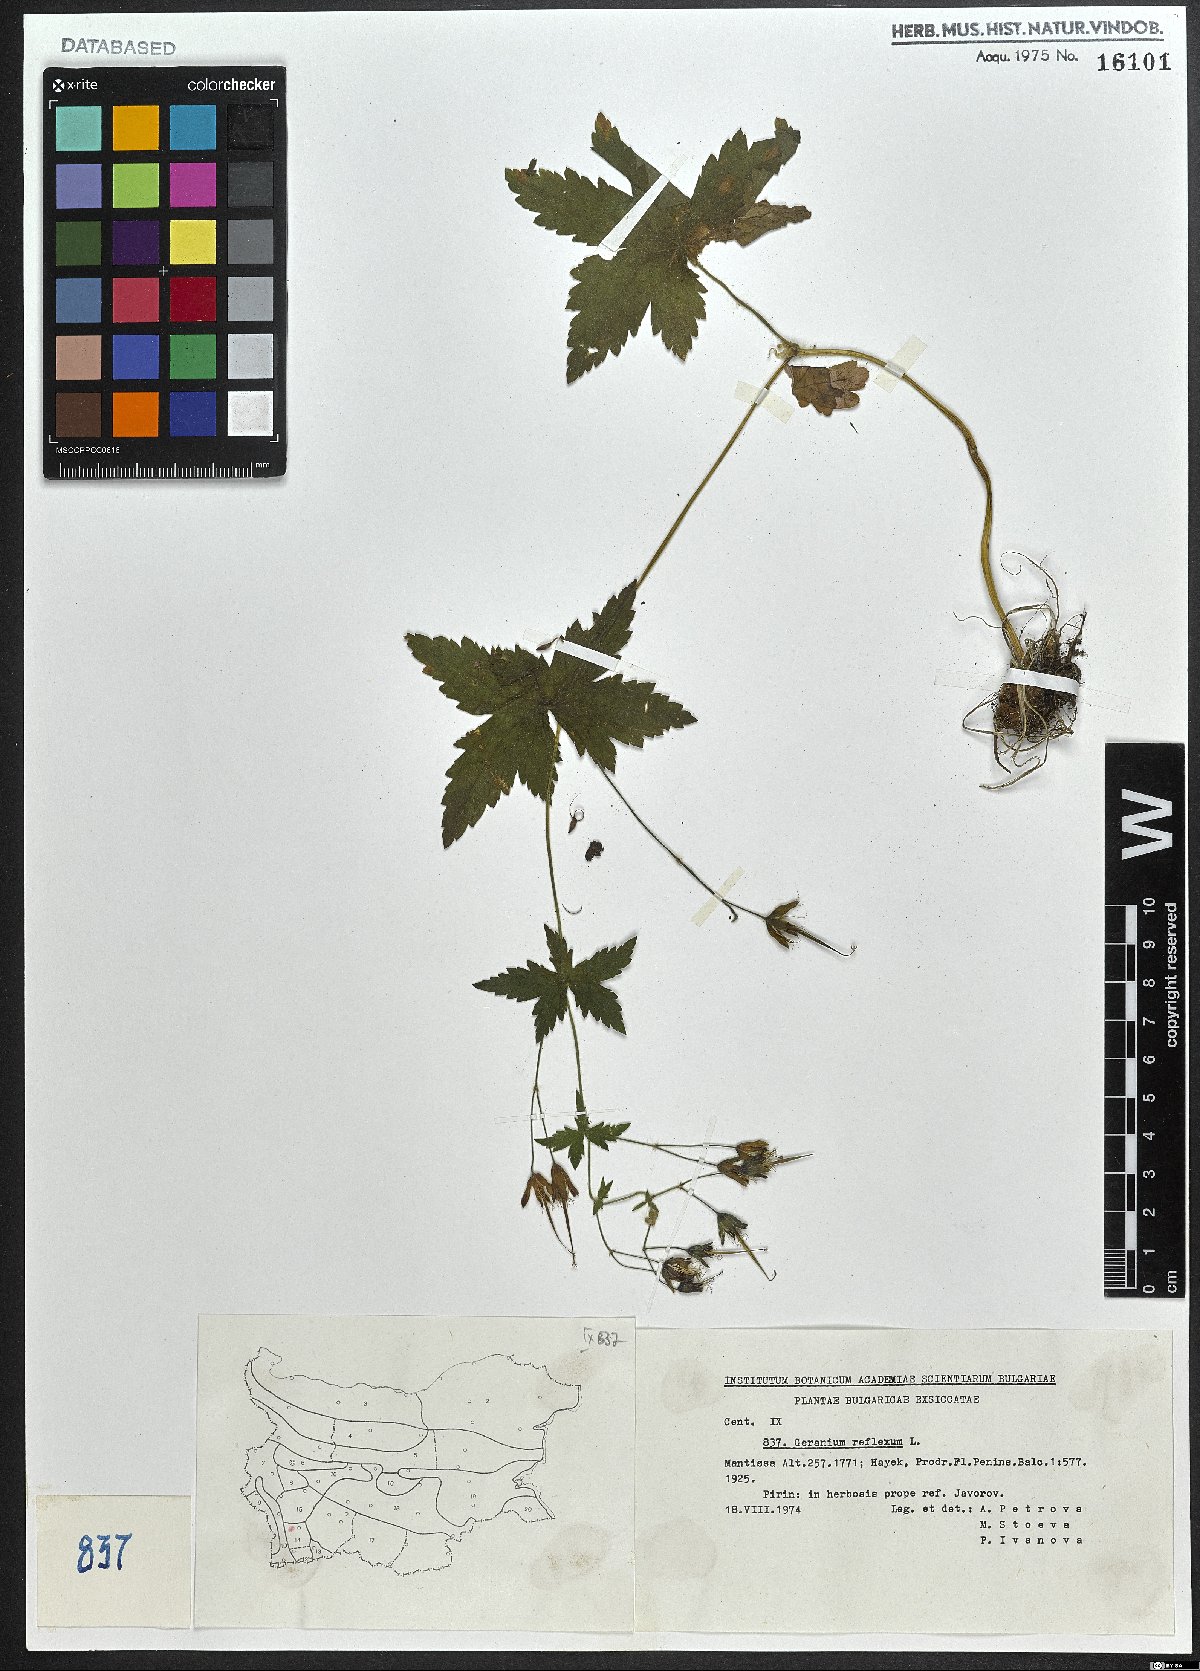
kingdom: Plantae
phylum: Tracheophyta
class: Magnoliopsida
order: Geraniales
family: Geraniaceae
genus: Geranium
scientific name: Geranium reflexum
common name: Reflexed crane's-bill
